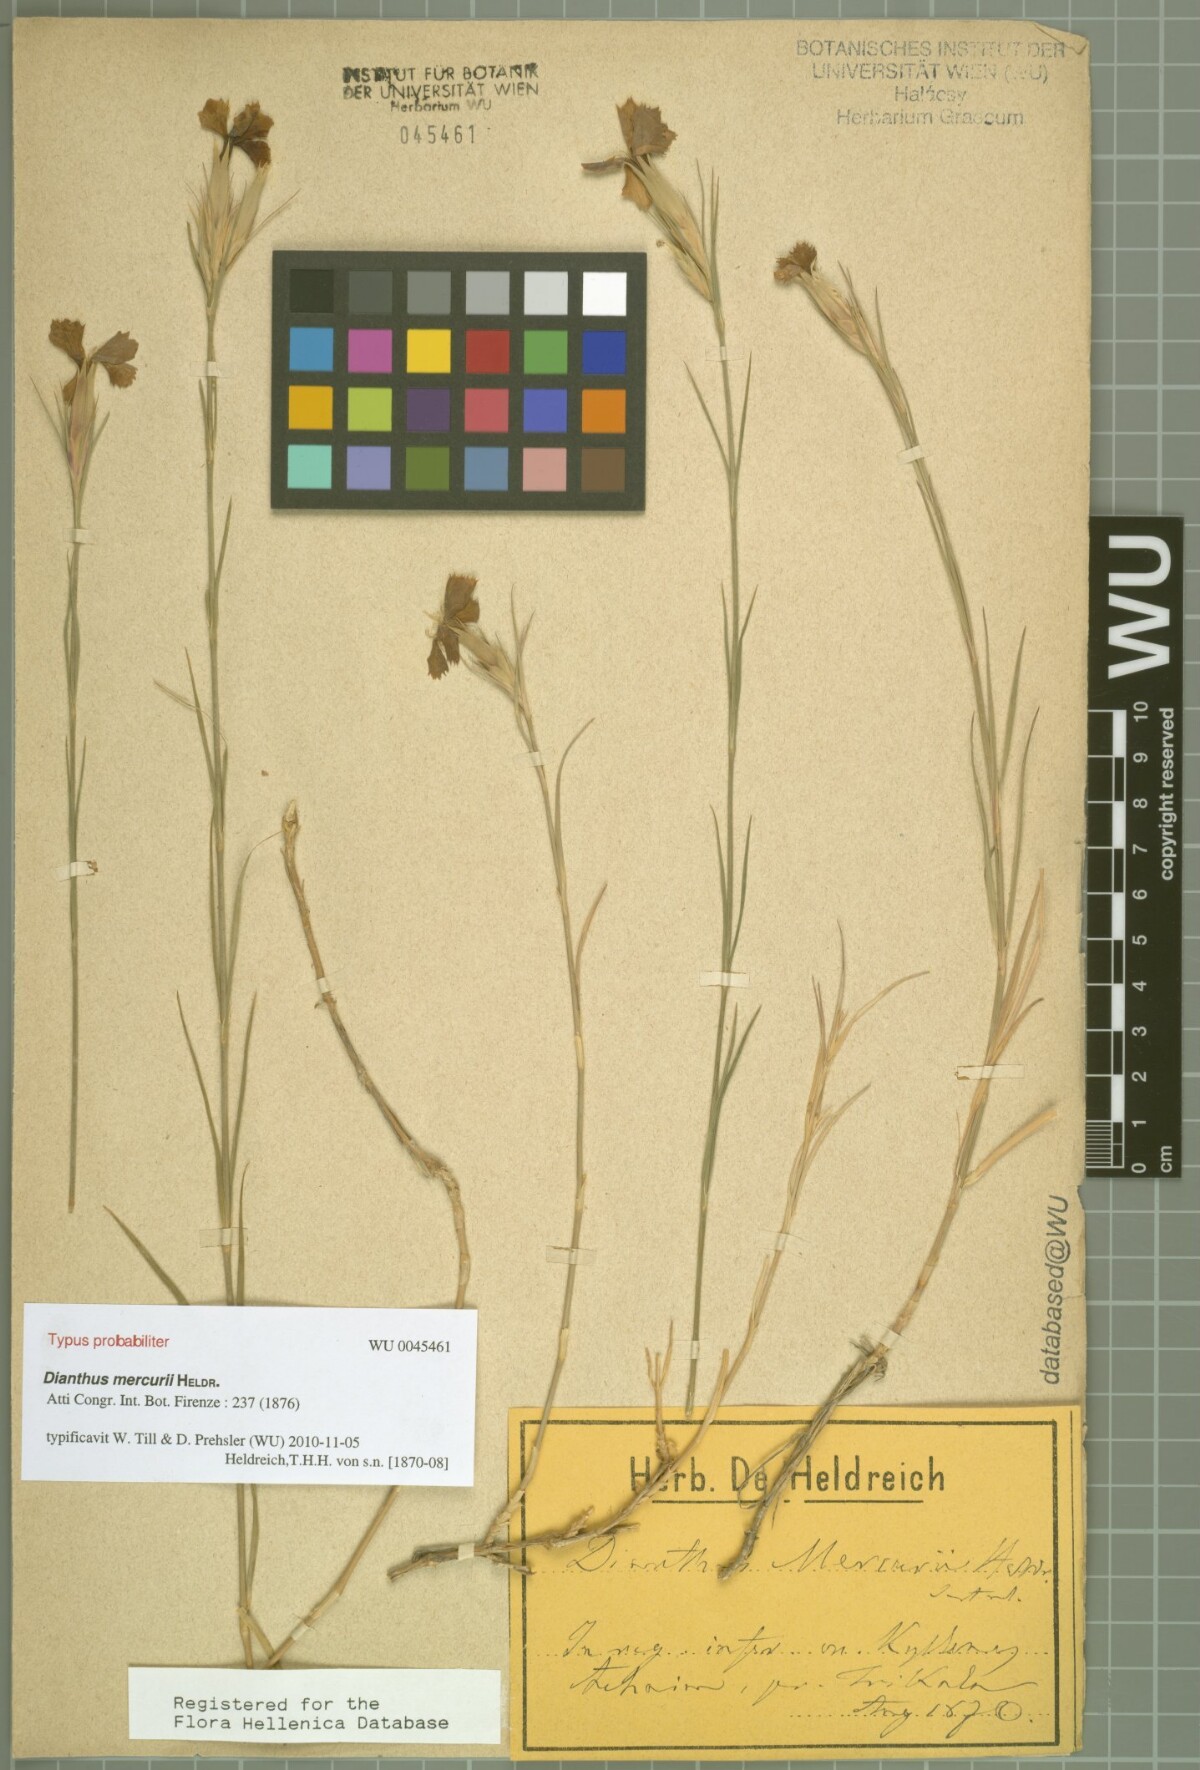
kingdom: Plantae
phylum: Tracheophyta
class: Magnoliopsida
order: Caryophyllales
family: Caryophyllaceae
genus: Dianthus
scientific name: Dianthus mercurii
